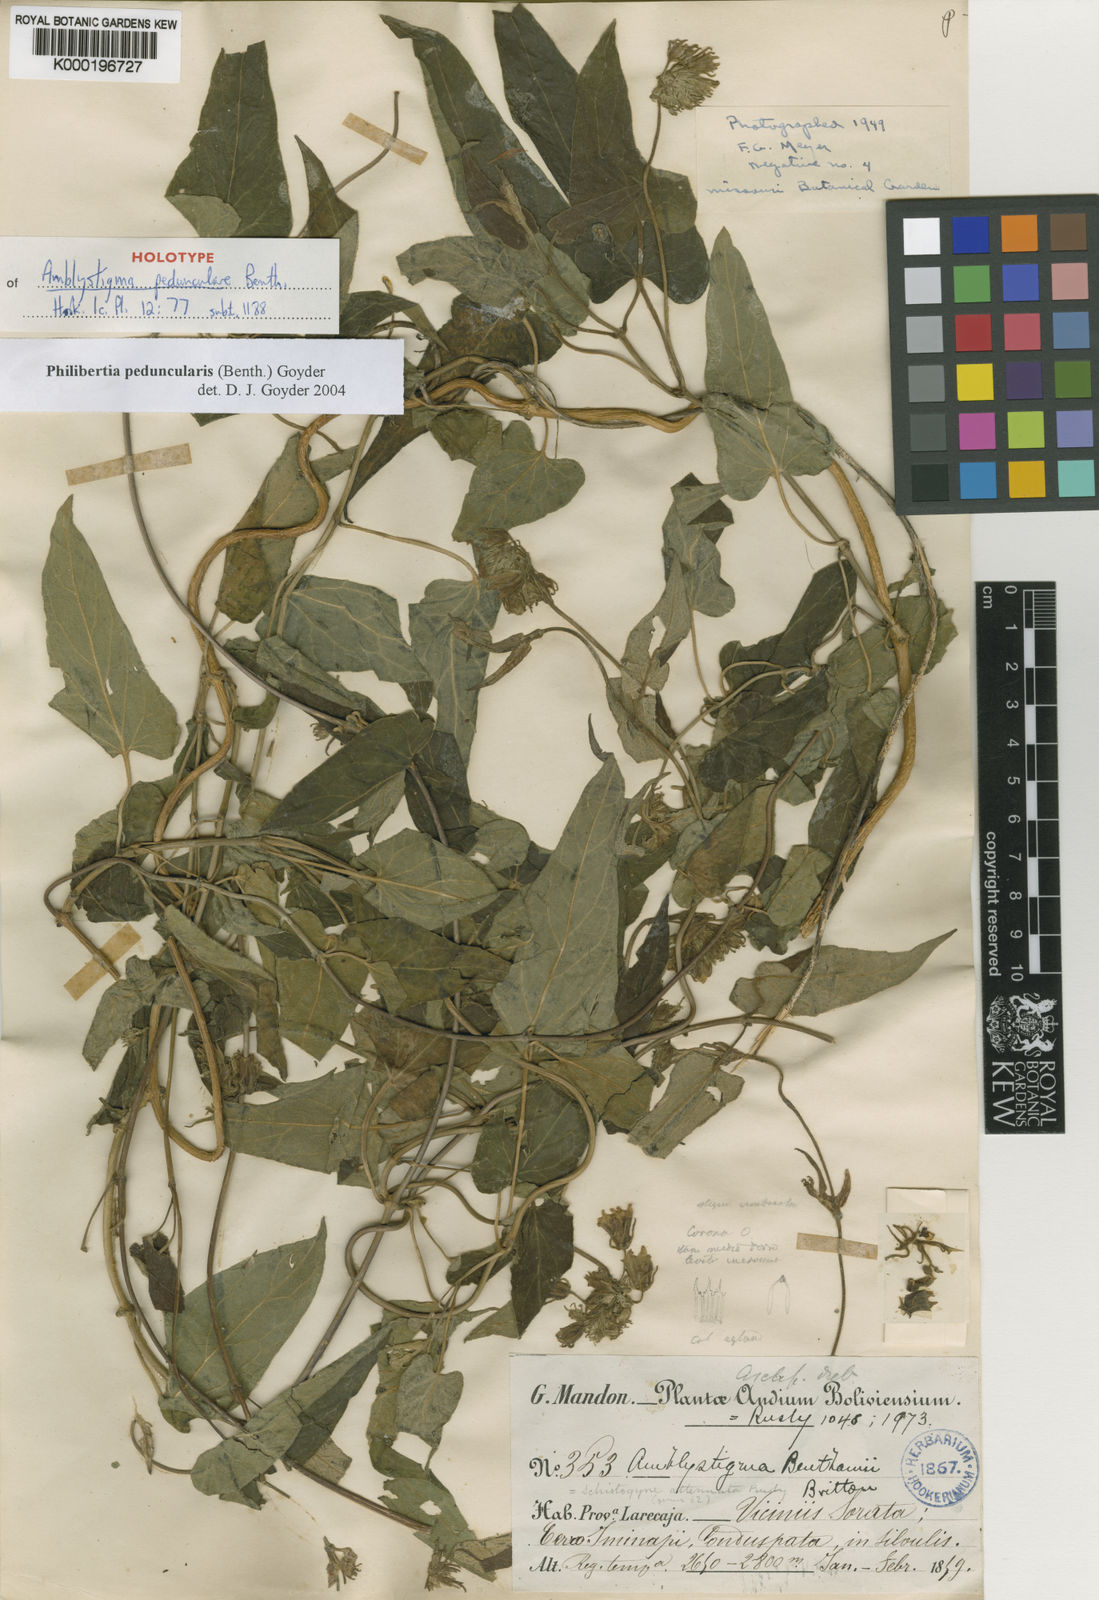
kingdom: Plantae
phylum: Tracheophyta
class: Magnoliopsida
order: Gentianales
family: Apocynaceae
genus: Philibertia
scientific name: Philibertia peduncularis
